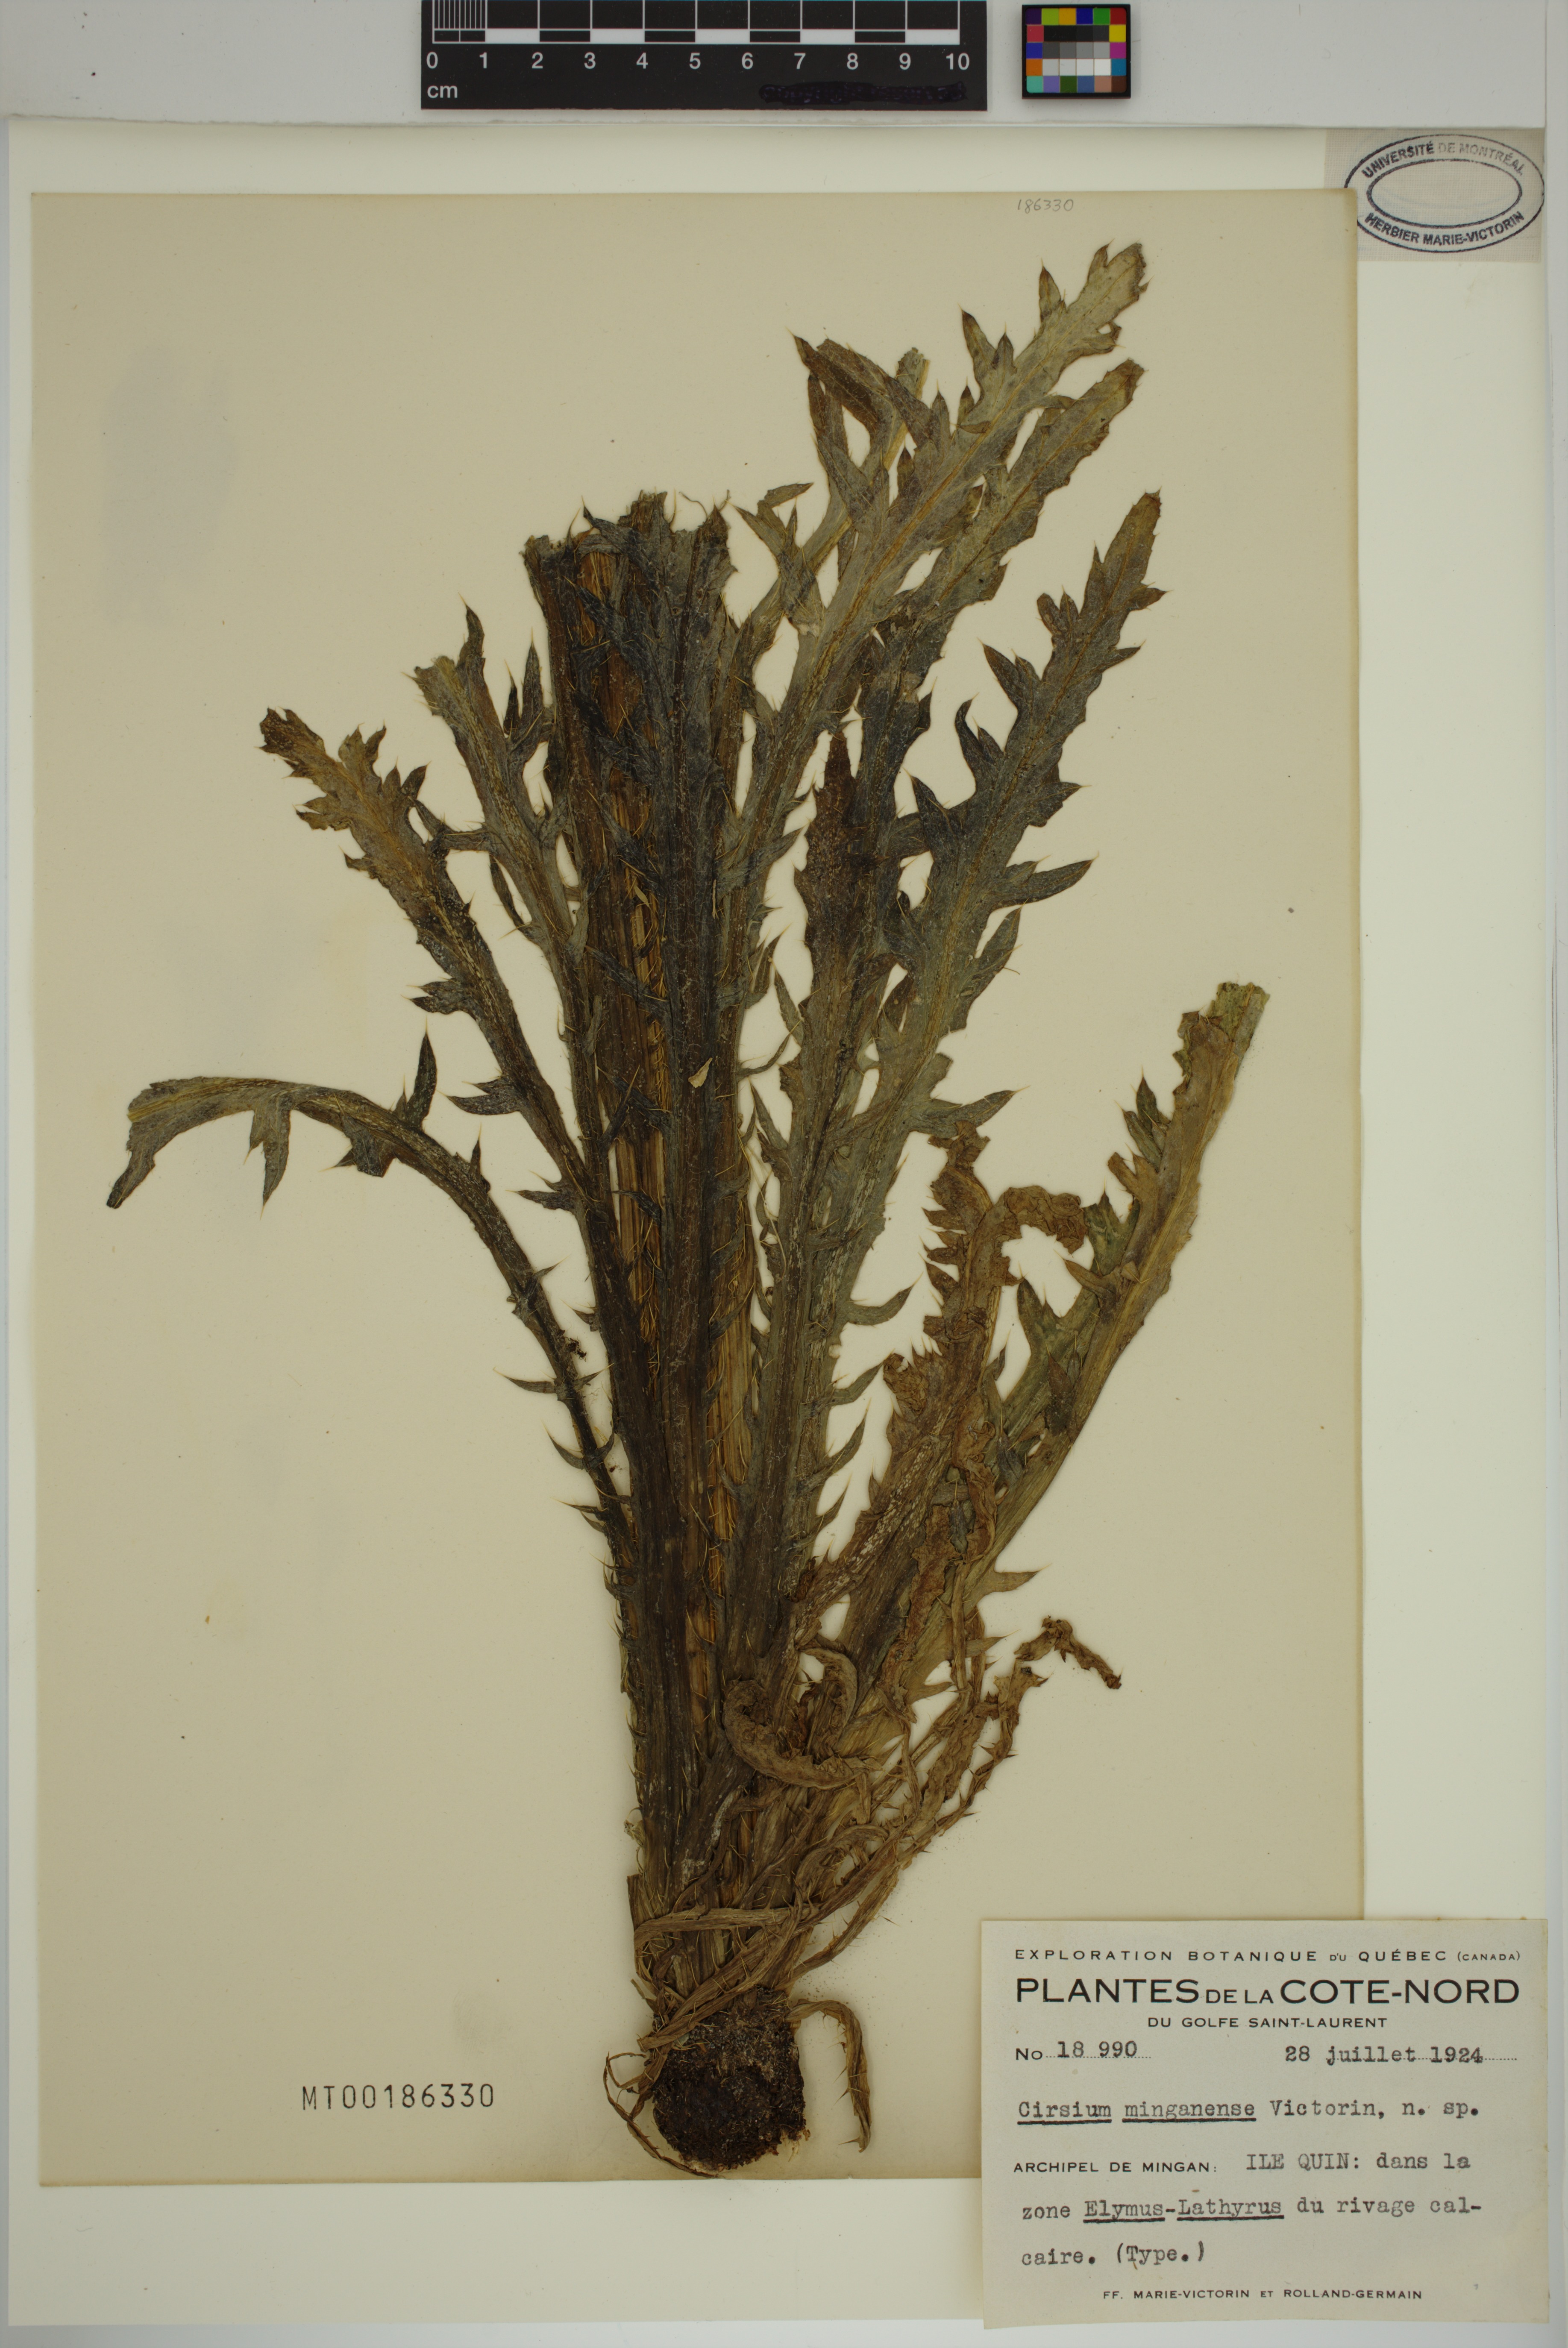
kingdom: Plantae
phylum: Tracheophyta
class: Magnoliopsida
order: Asterales
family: Asteraceae
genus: Cirsium
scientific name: Cirsium scariosum
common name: Meadow thistle
